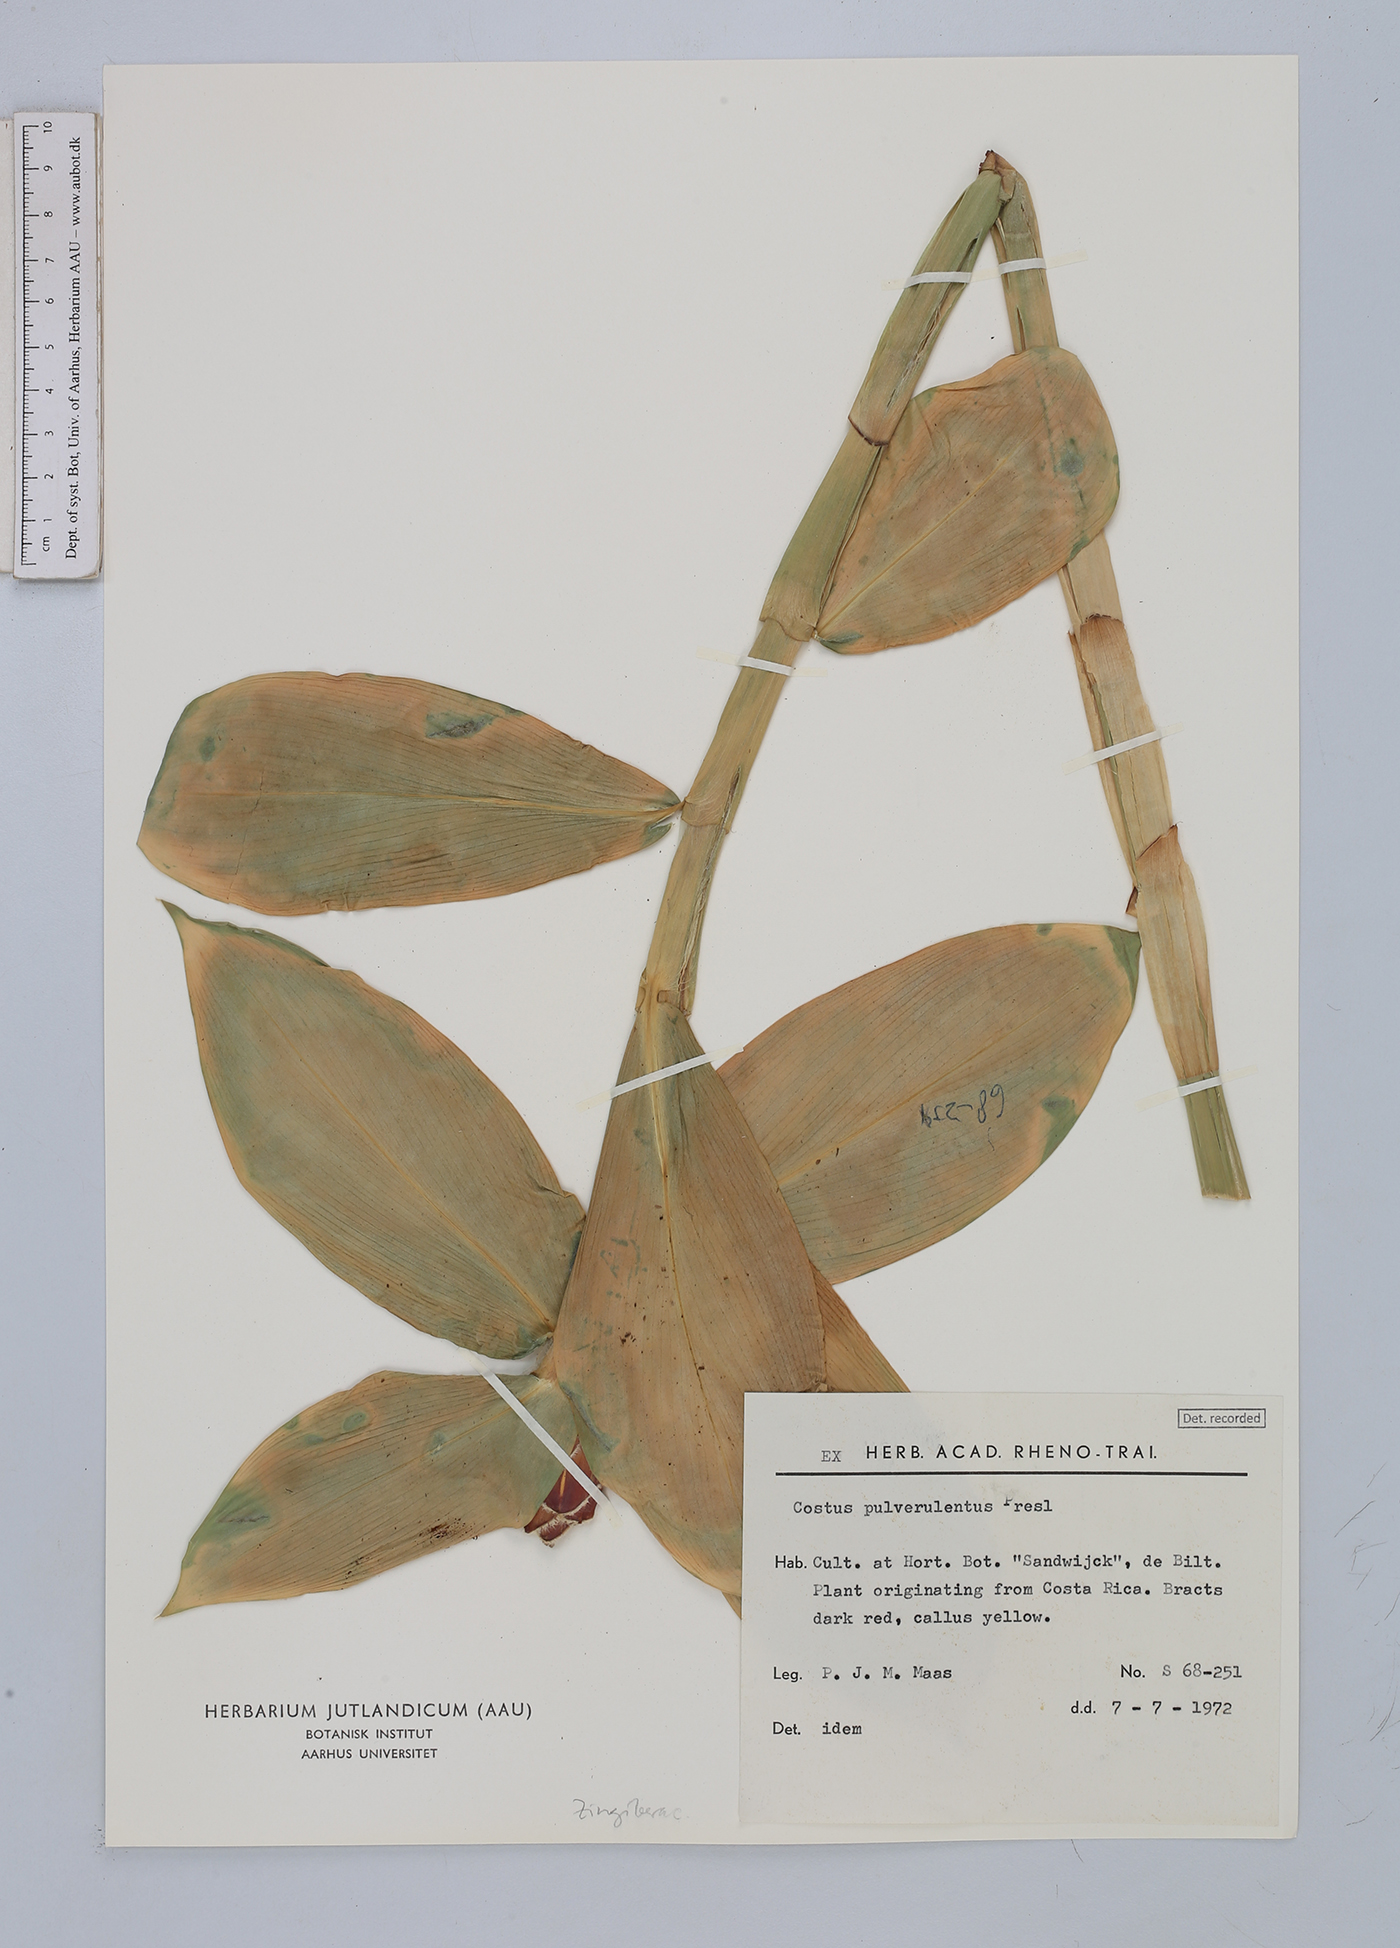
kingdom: Plantae
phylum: Tracheophyta
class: Liliopsida
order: Zingiberales
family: Costaceae
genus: Costus
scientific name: Costus pulverulentus
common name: Spiral ginger
